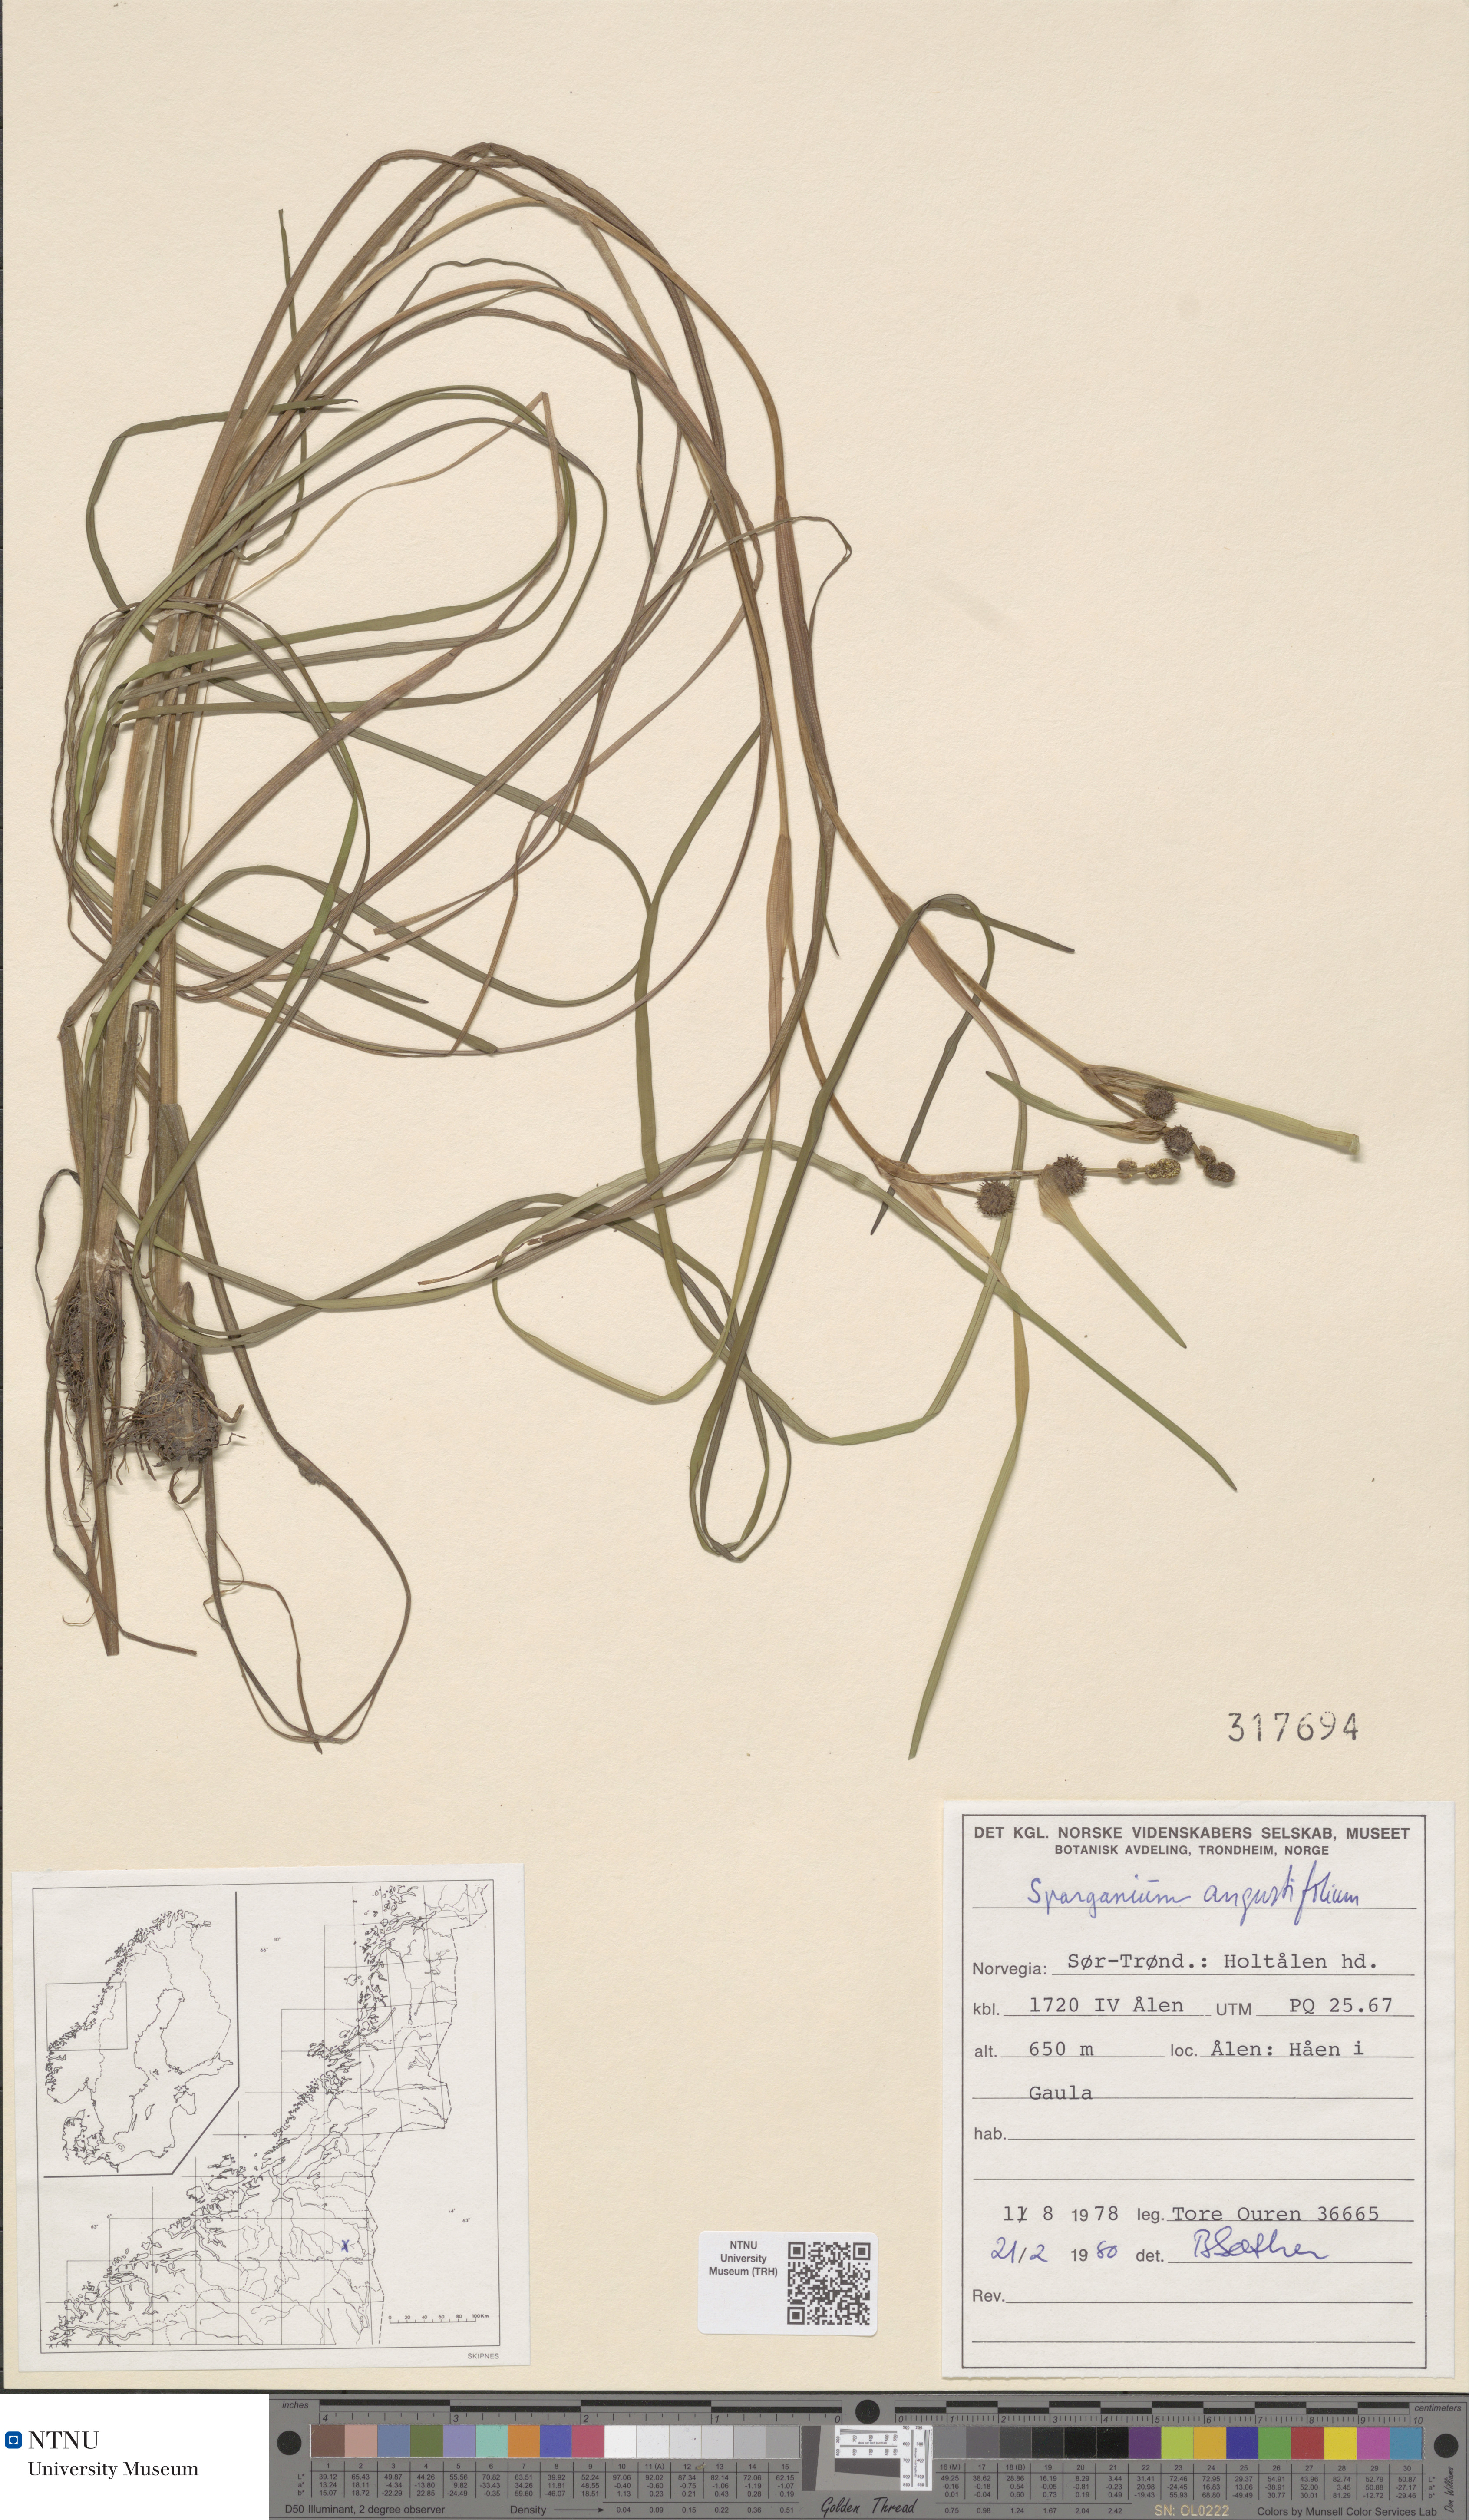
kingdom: Plantae
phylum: Tracheophyta
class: Liliopsida
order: Poales
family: Typhaceae
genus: Sparganium
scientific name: Sparganium natans
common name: Least bur-reed
